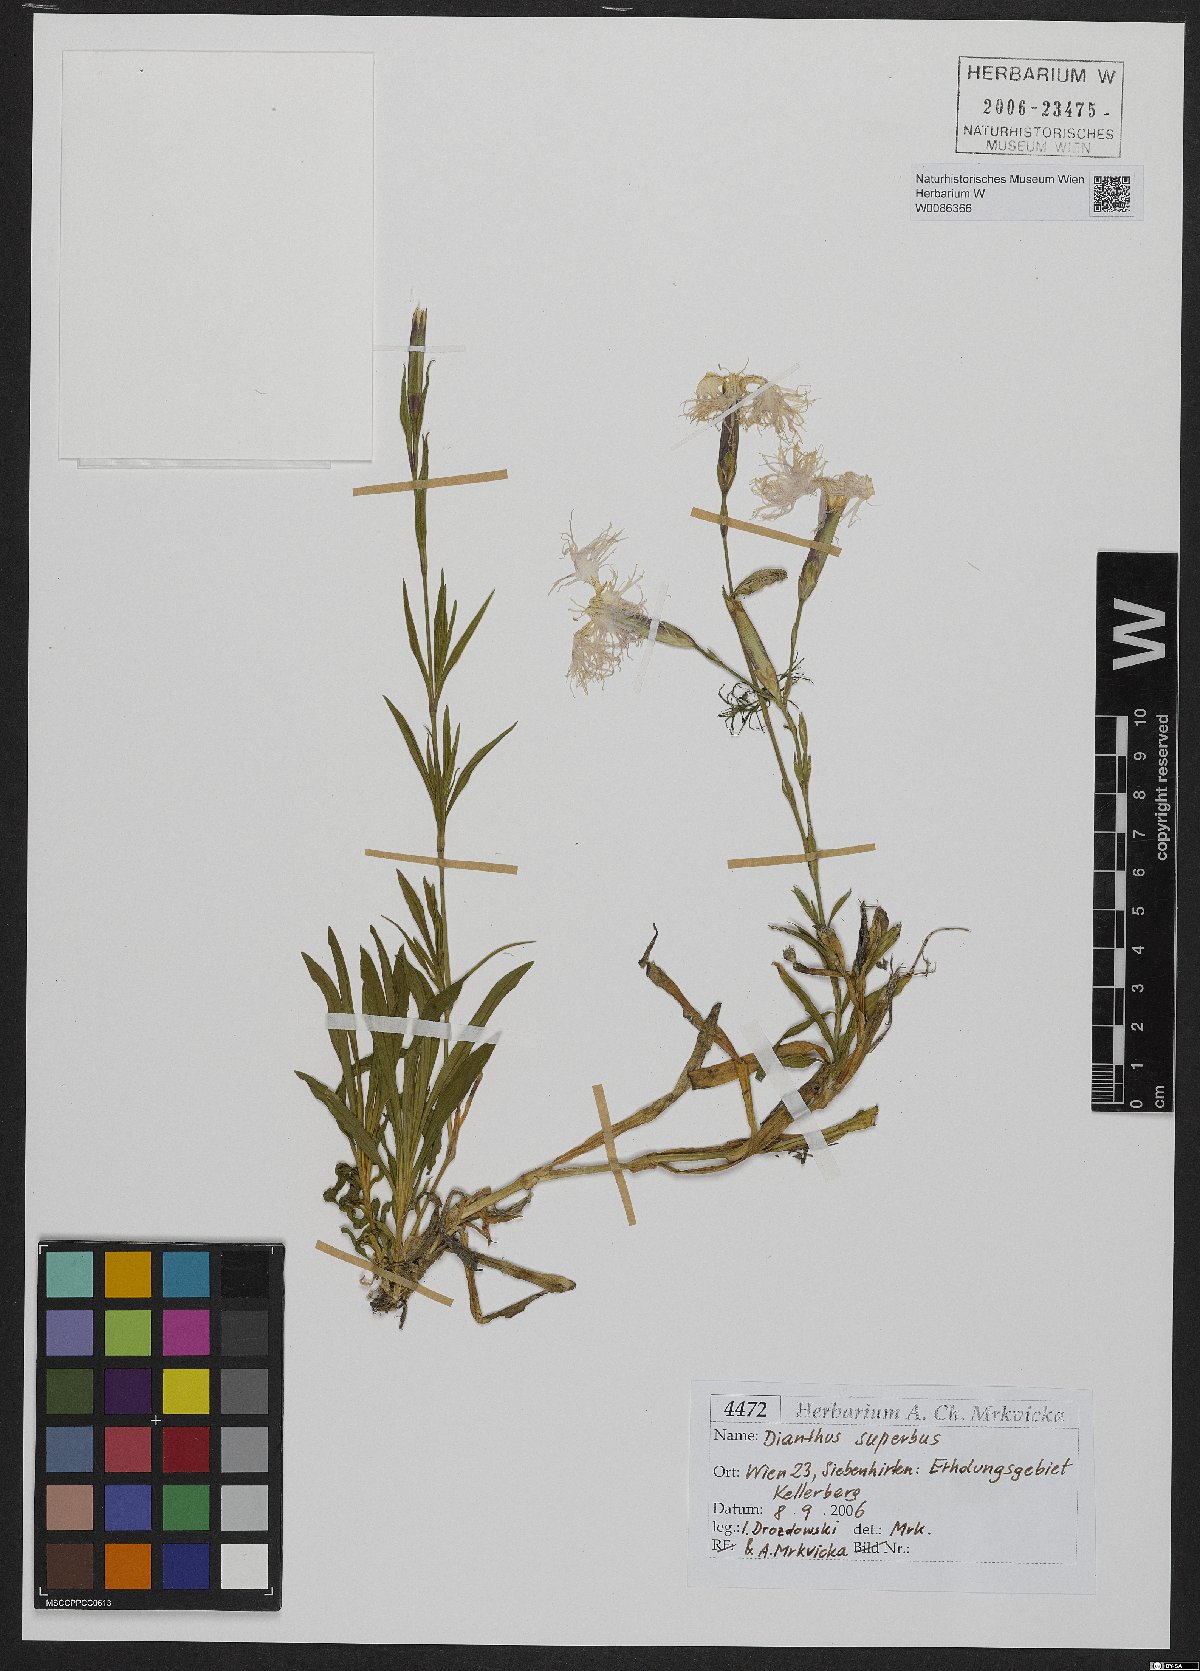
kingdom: Plantae
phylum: Tracheophyta
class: Magnoliopsida
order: Caryophyllales
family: Caryophyllaceae
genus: Dianthus
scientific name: Dianthus superbus
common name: Fringed pink
